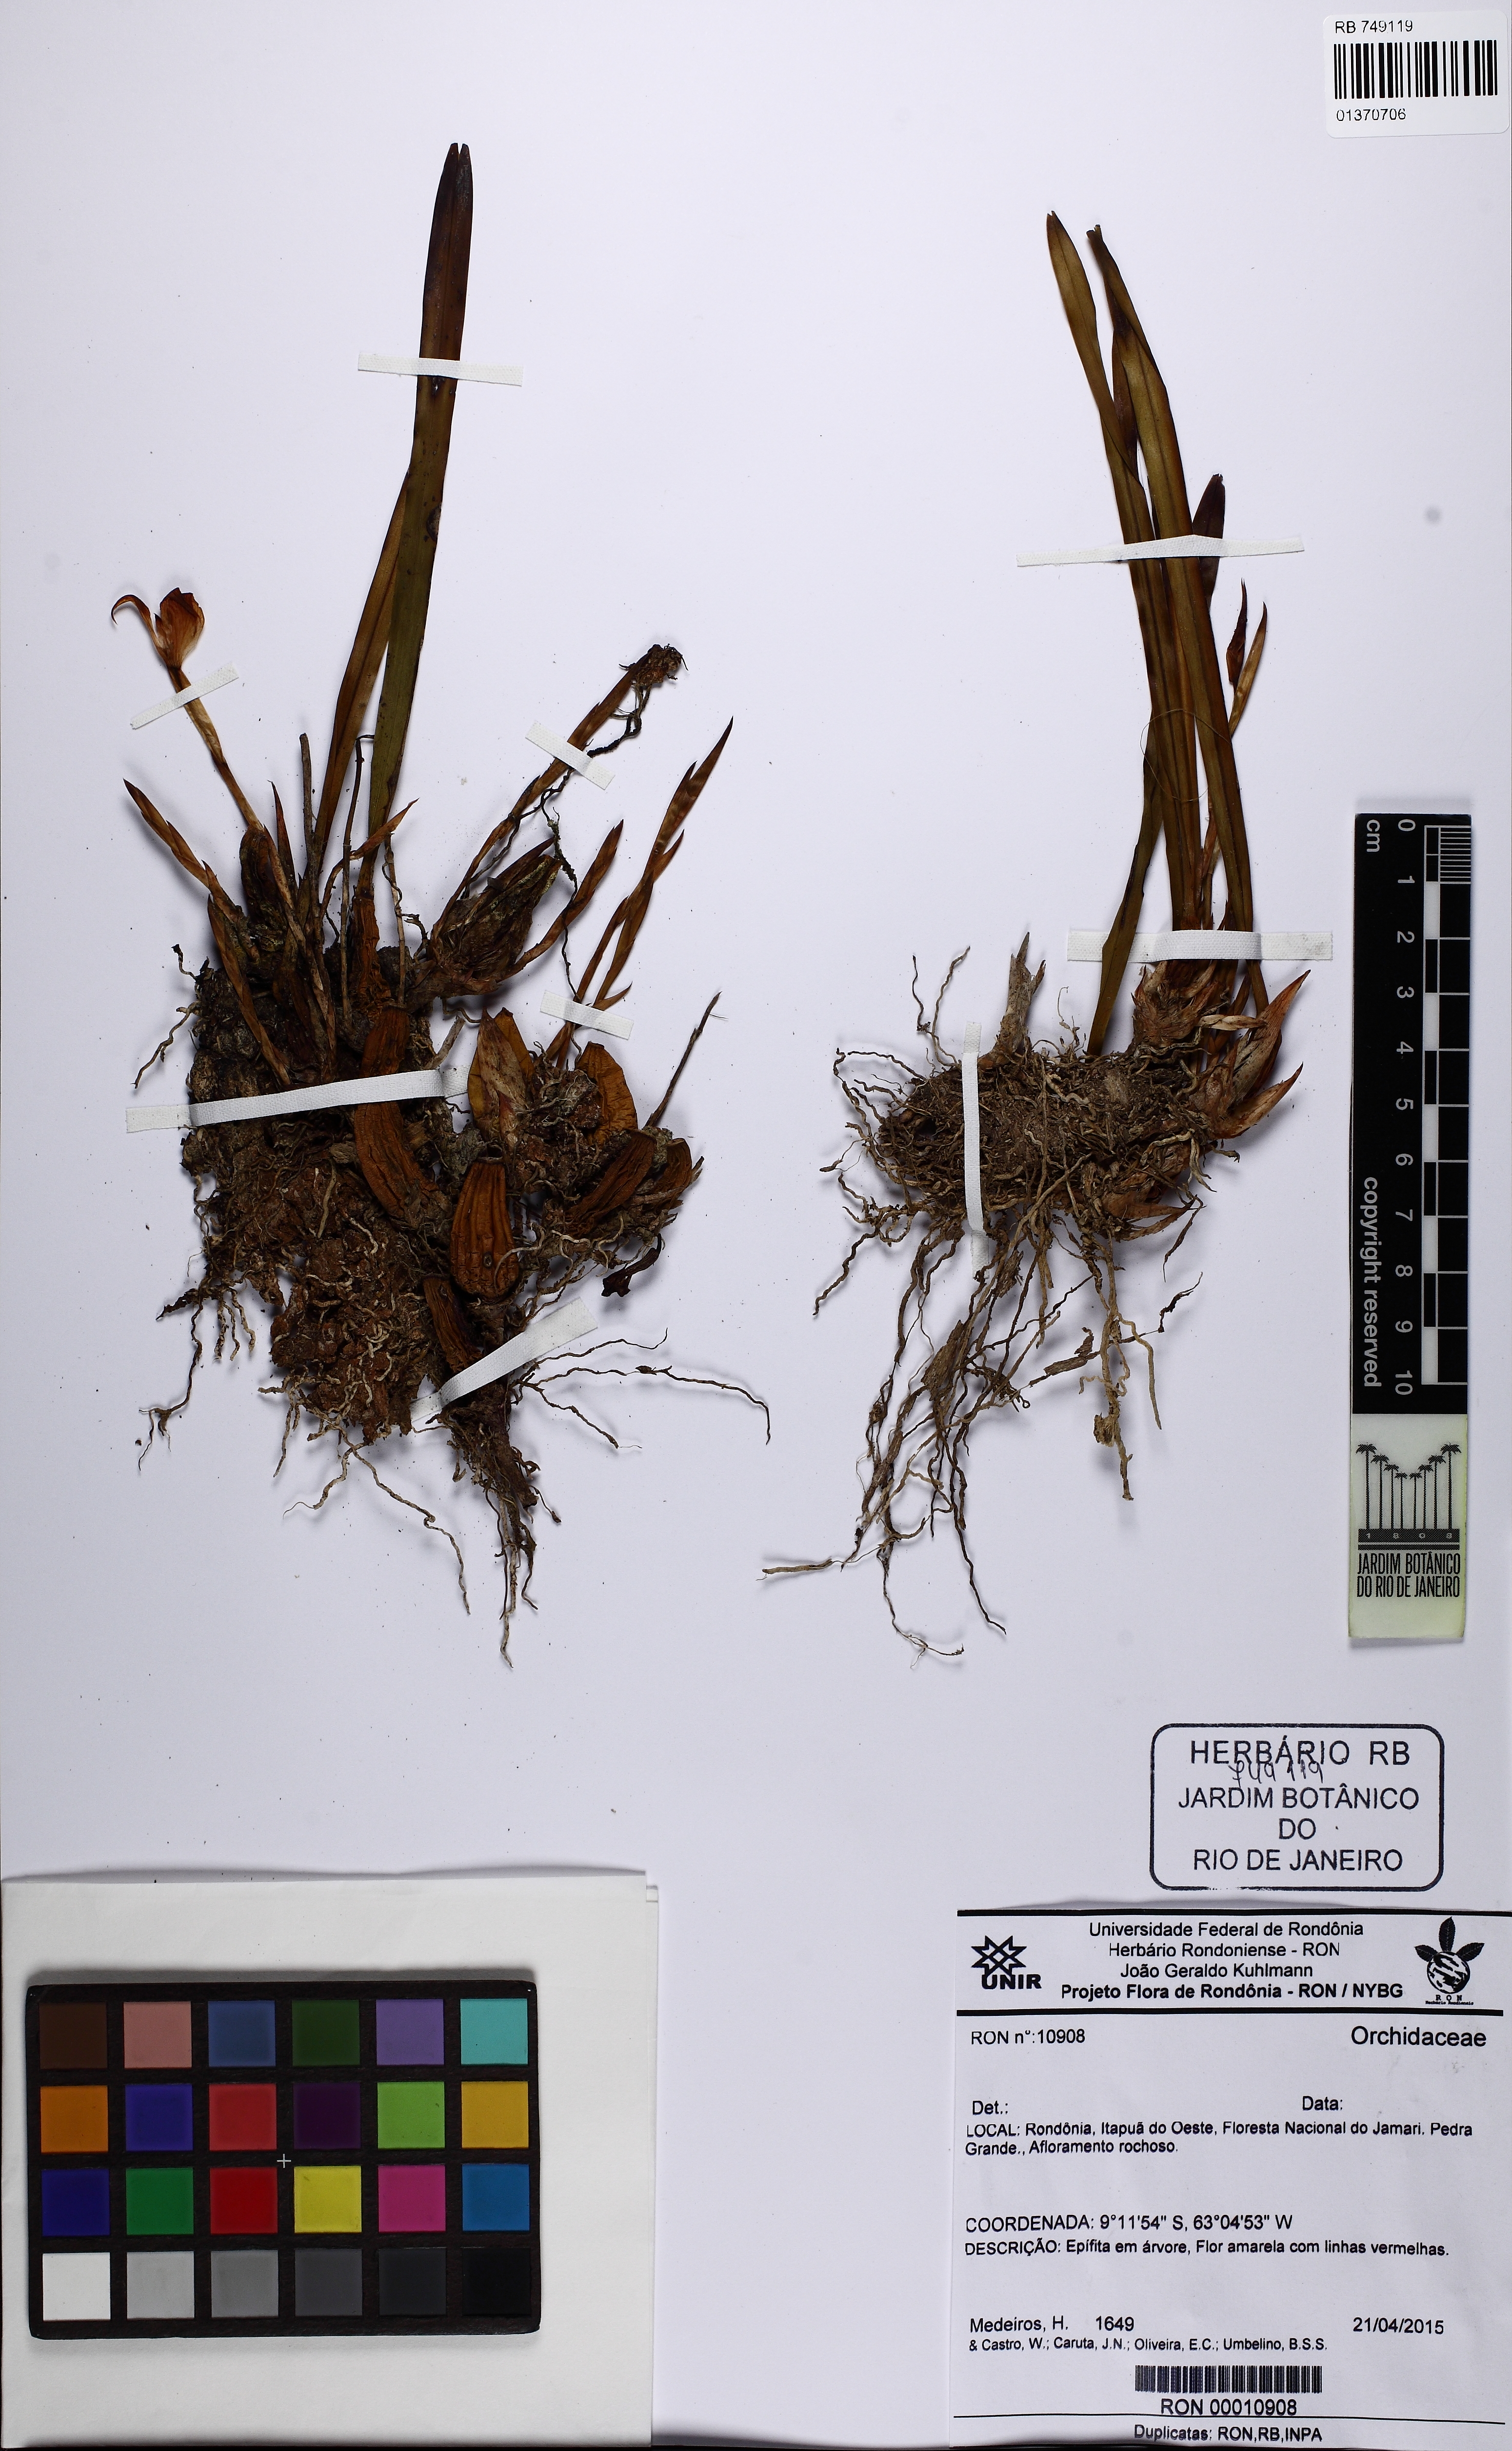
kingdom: Animalia
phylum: Arthropoda
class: Insecta
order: Orthoptera
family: Trigonidiidae
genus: Trigonidium
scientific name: Trigonidium
